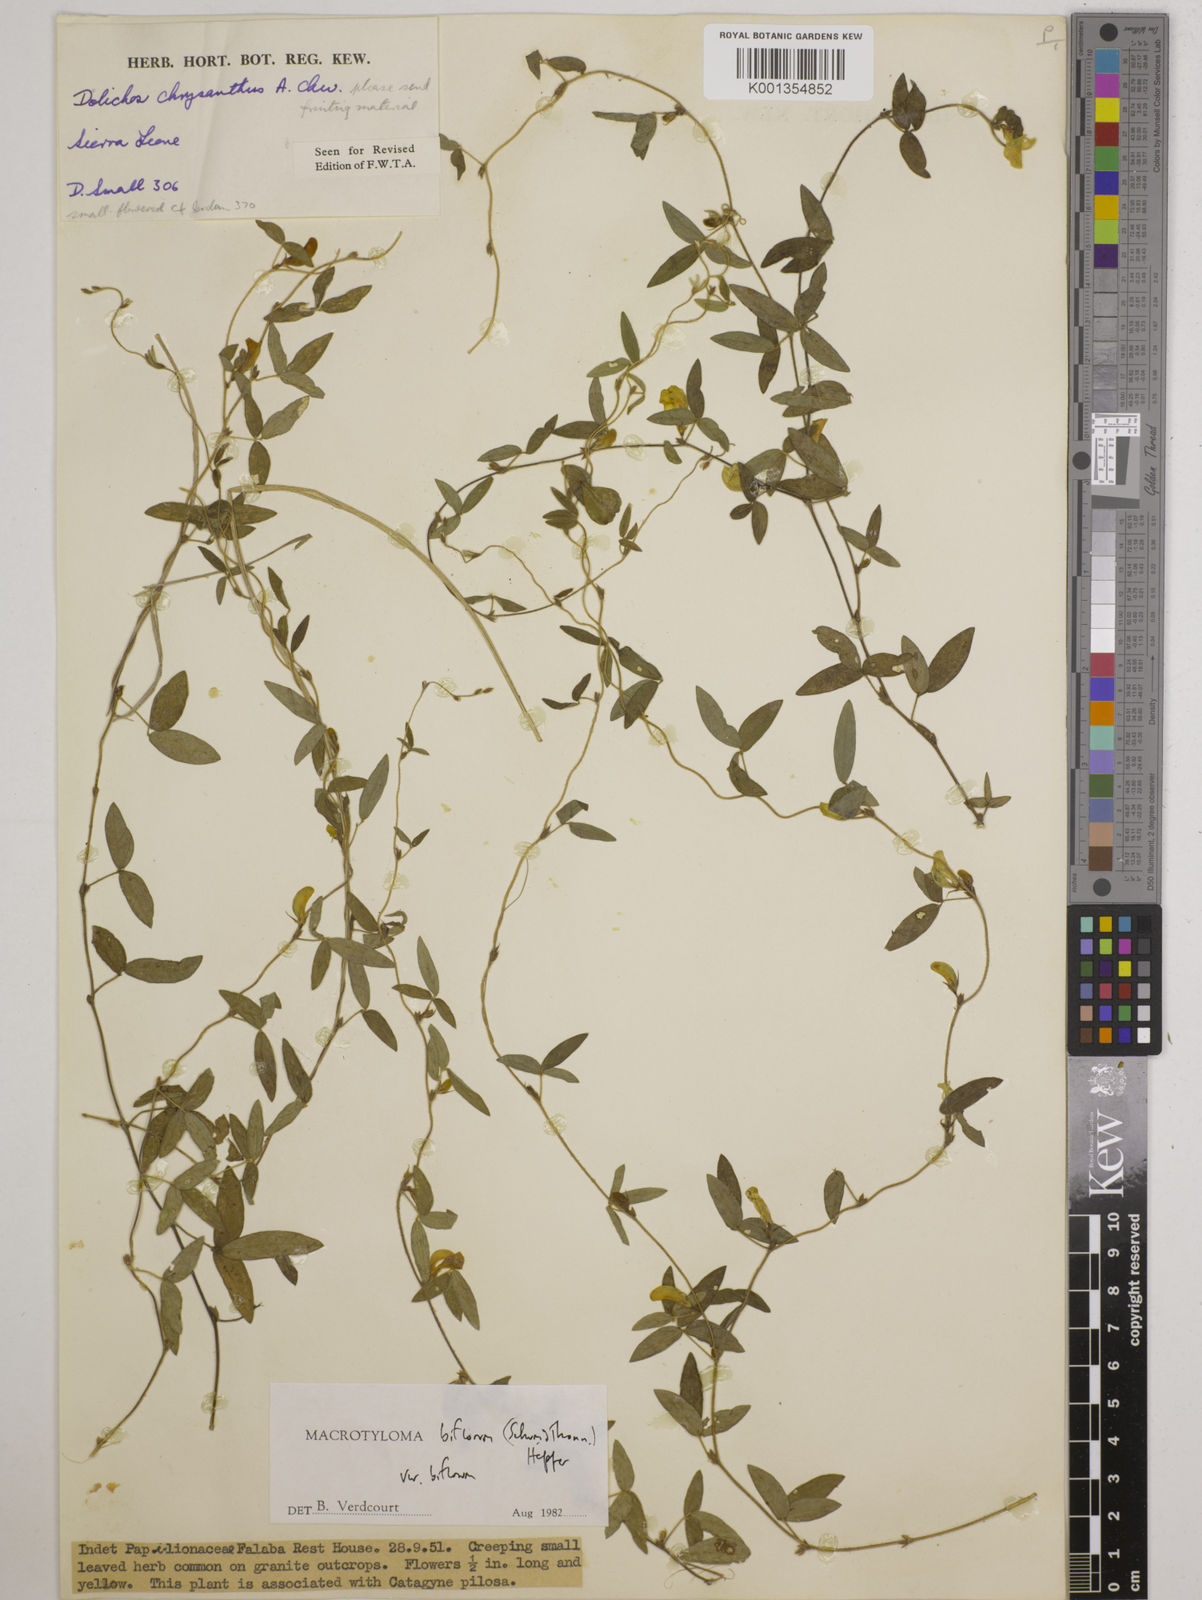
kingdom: Plantae
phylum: Tracheophyta
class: Magnoliopsida
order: Fabales
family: Fabaceae
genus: Macrotyloma
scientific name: Macrotyloma biflorum
